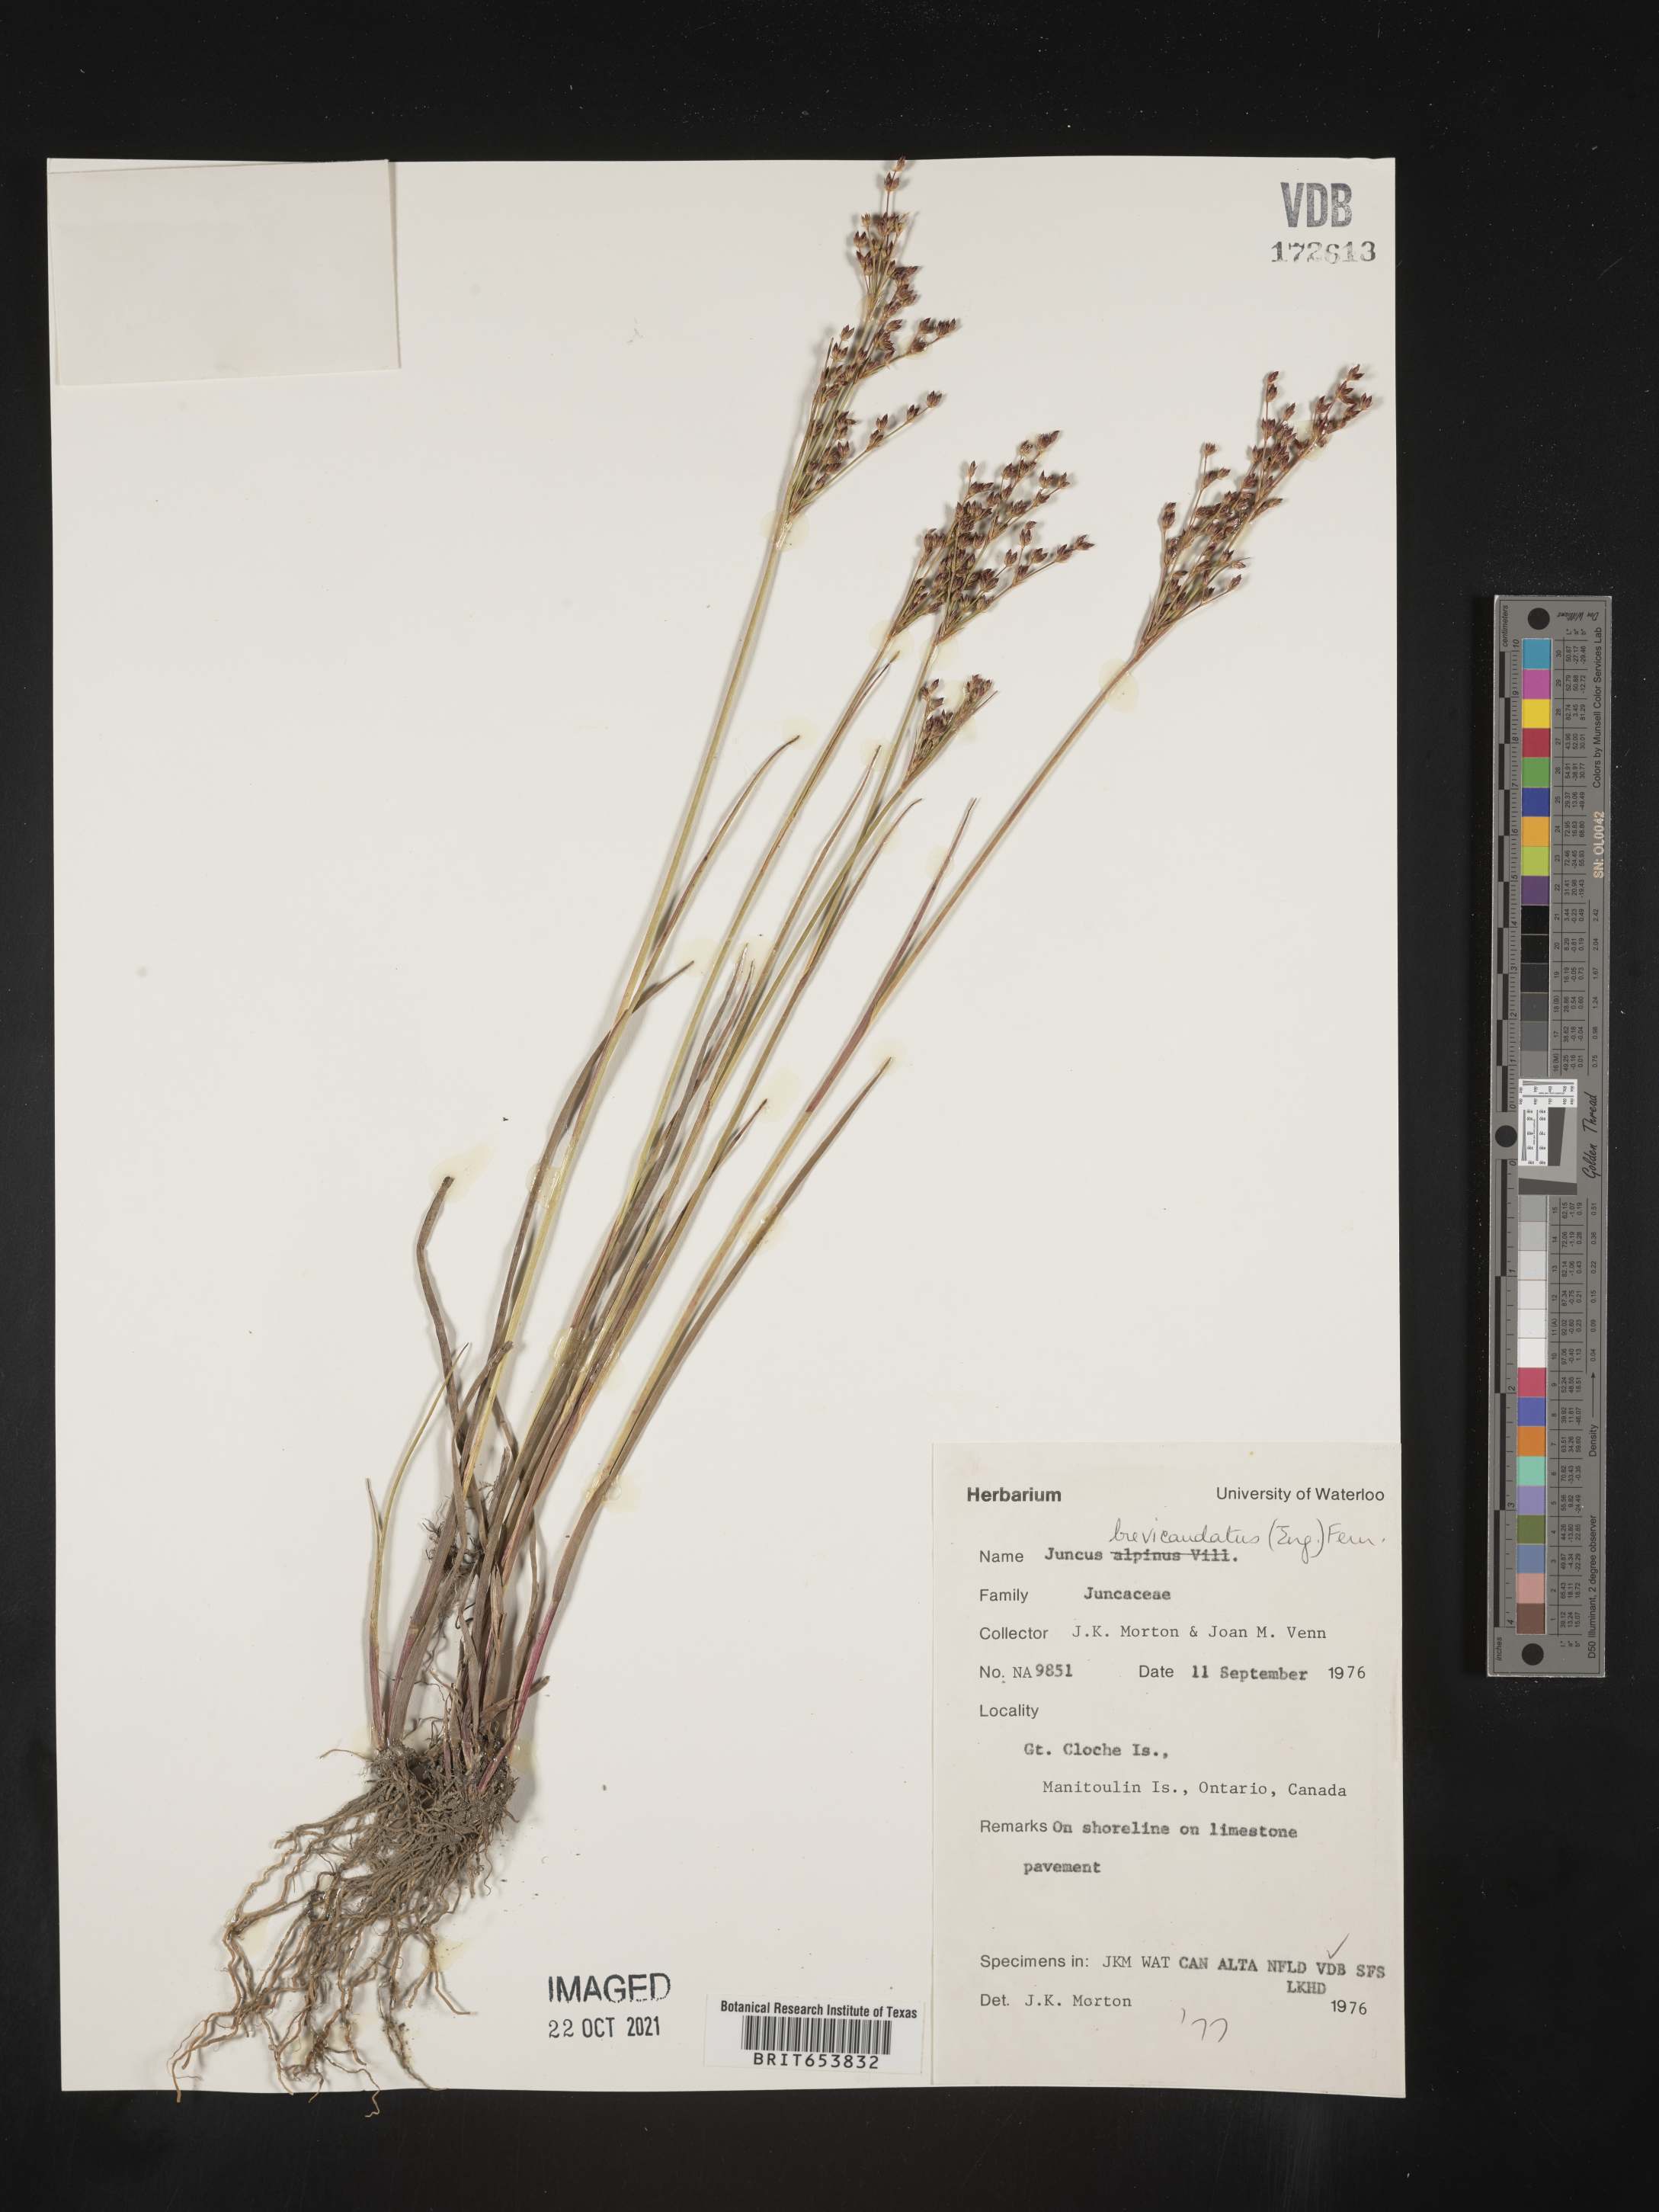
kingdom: Plantae
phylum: Tracheophyta
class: Liliopsida
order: Poales
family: Juncaceae
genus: Juncus
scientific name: Juncus brevicaudatus
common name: Narrow-panicle rush
